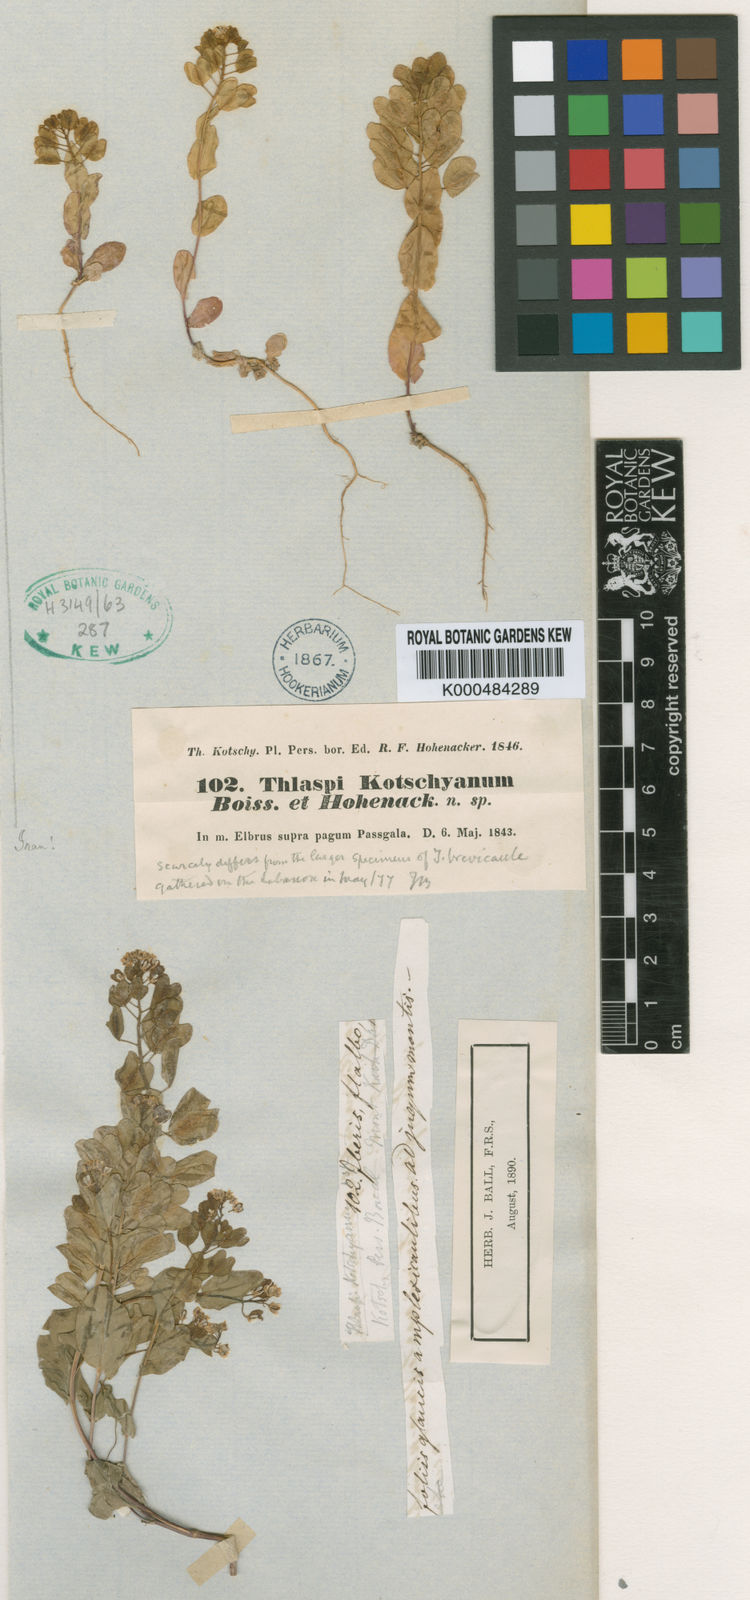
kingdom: Plantae
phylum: Tracheophyta
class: Magnoliopsida
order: Brassicales
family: Brassicaceae
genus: Noccaea
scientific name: Noccaea platycarpa
